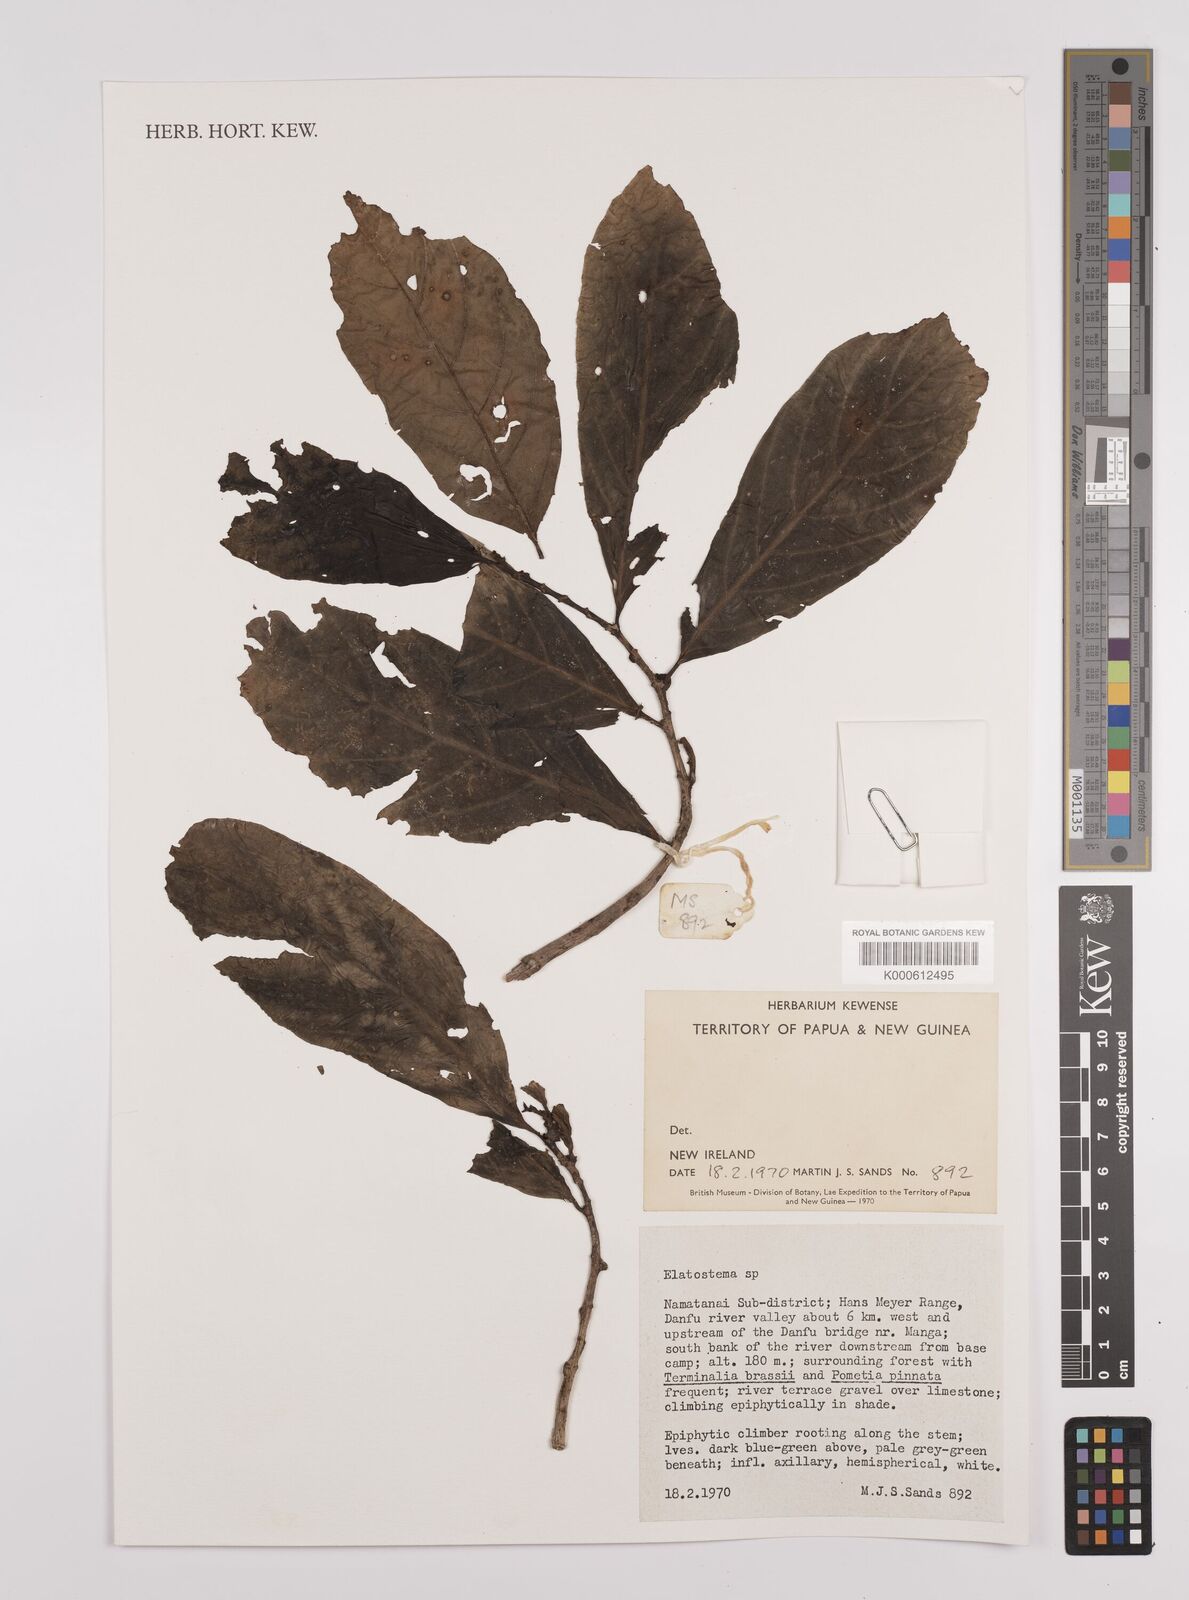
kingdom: Plantae
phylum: Tracheophyta
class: Magnoliopsida
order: Rosales
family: Urticaceae
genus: Elatostema
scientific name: Elatostema
